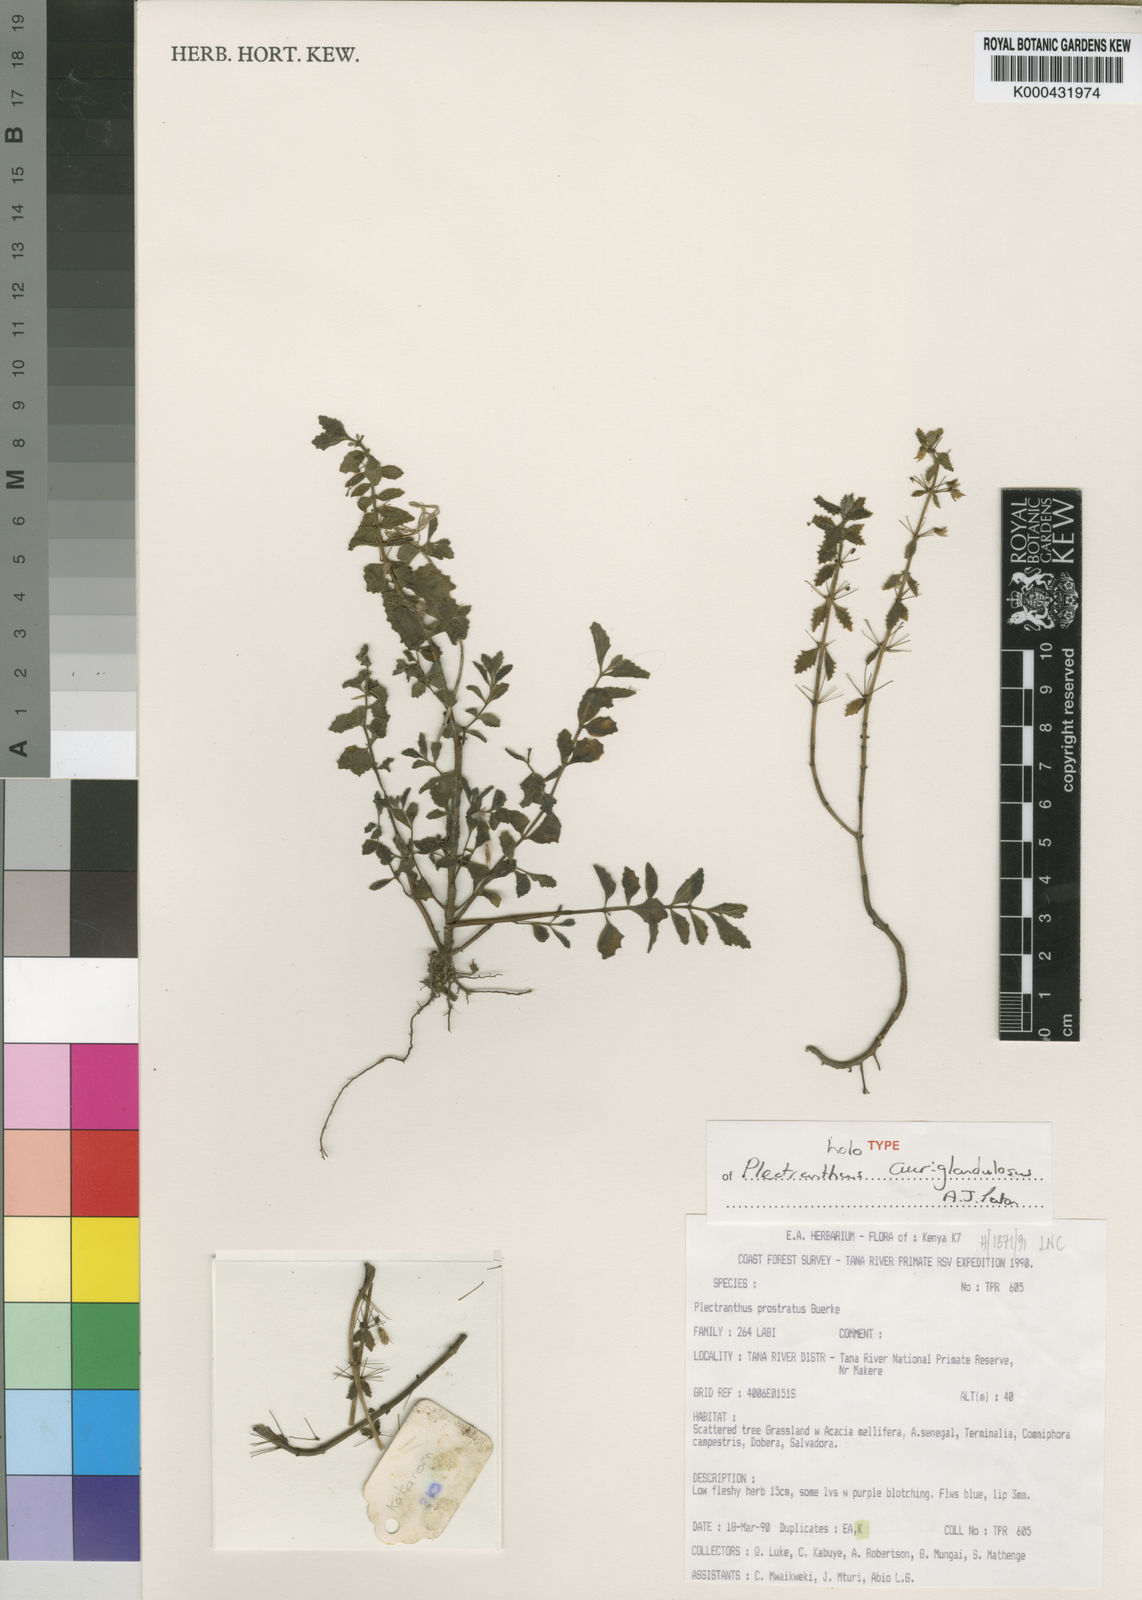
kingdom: Plantae
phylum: Tracheophyta
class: Magnoliopsida
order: Lamiales
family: Lamiaceae
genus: Coleus
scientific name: Coleus auriglandulosus
